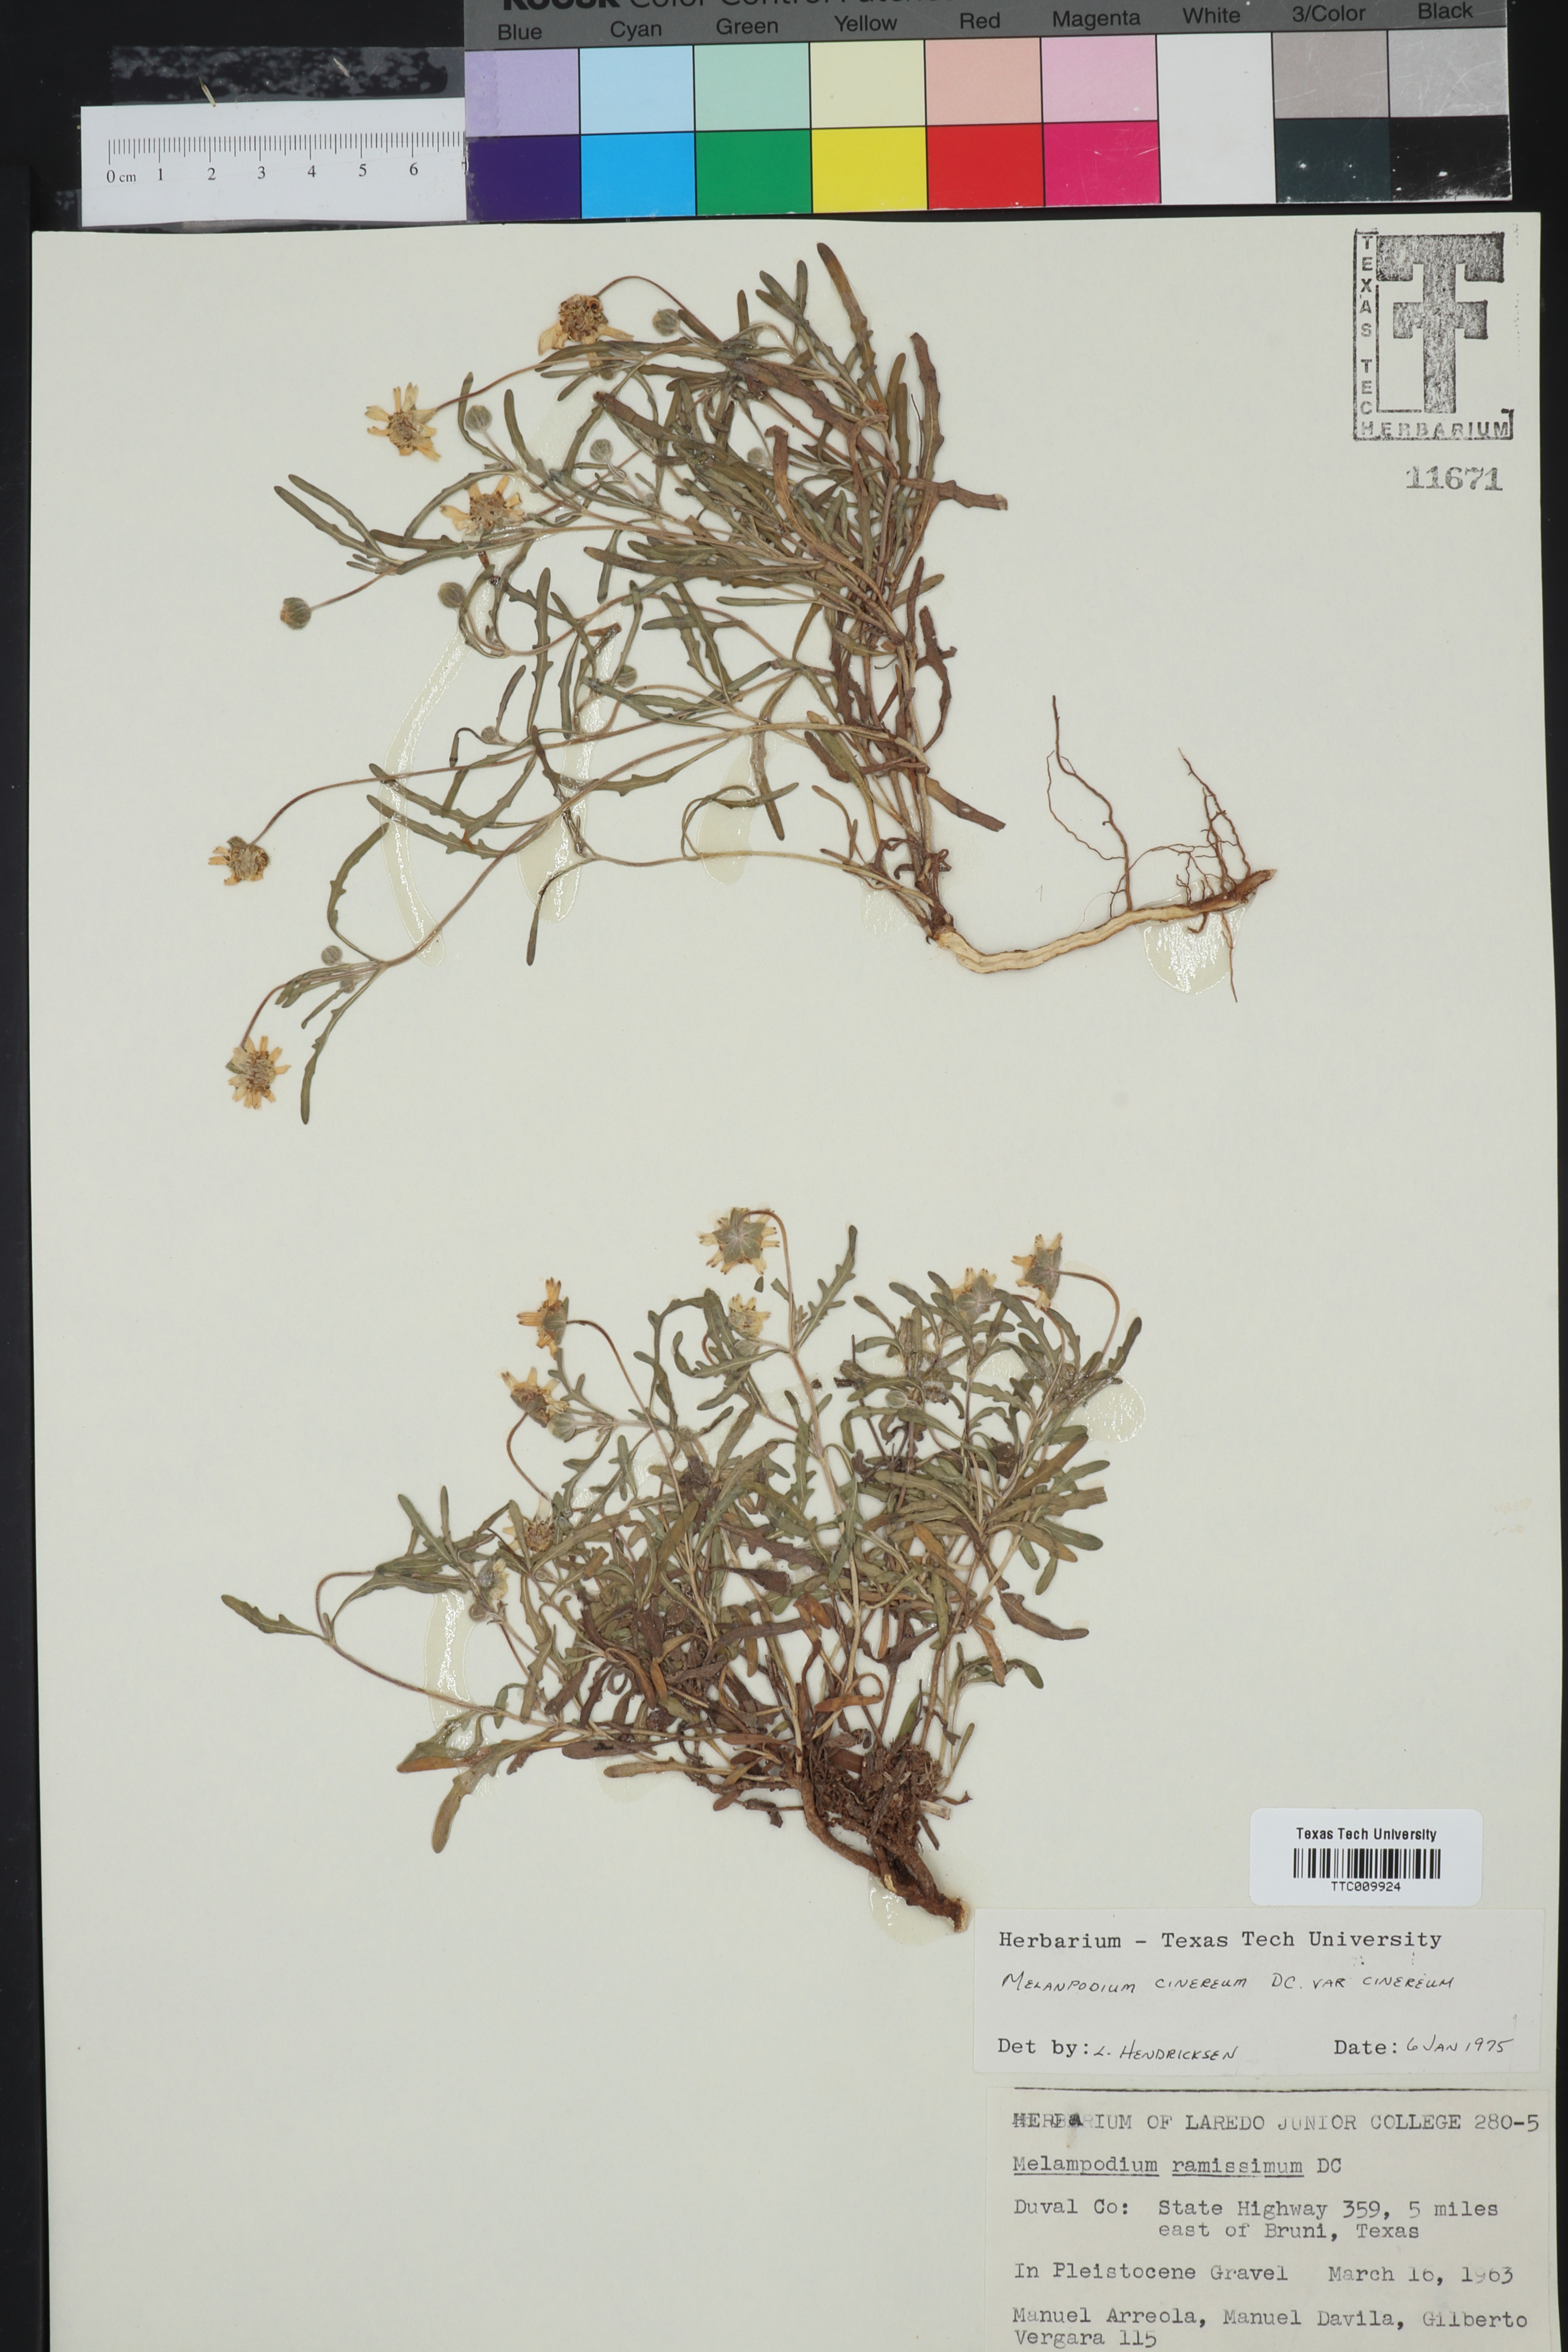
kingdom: Plantae
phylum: Tracheophyta
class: Magnoliopsida
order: Asterales
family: Asteraceae
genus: Melampodium
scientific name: Melampodium cinereum
